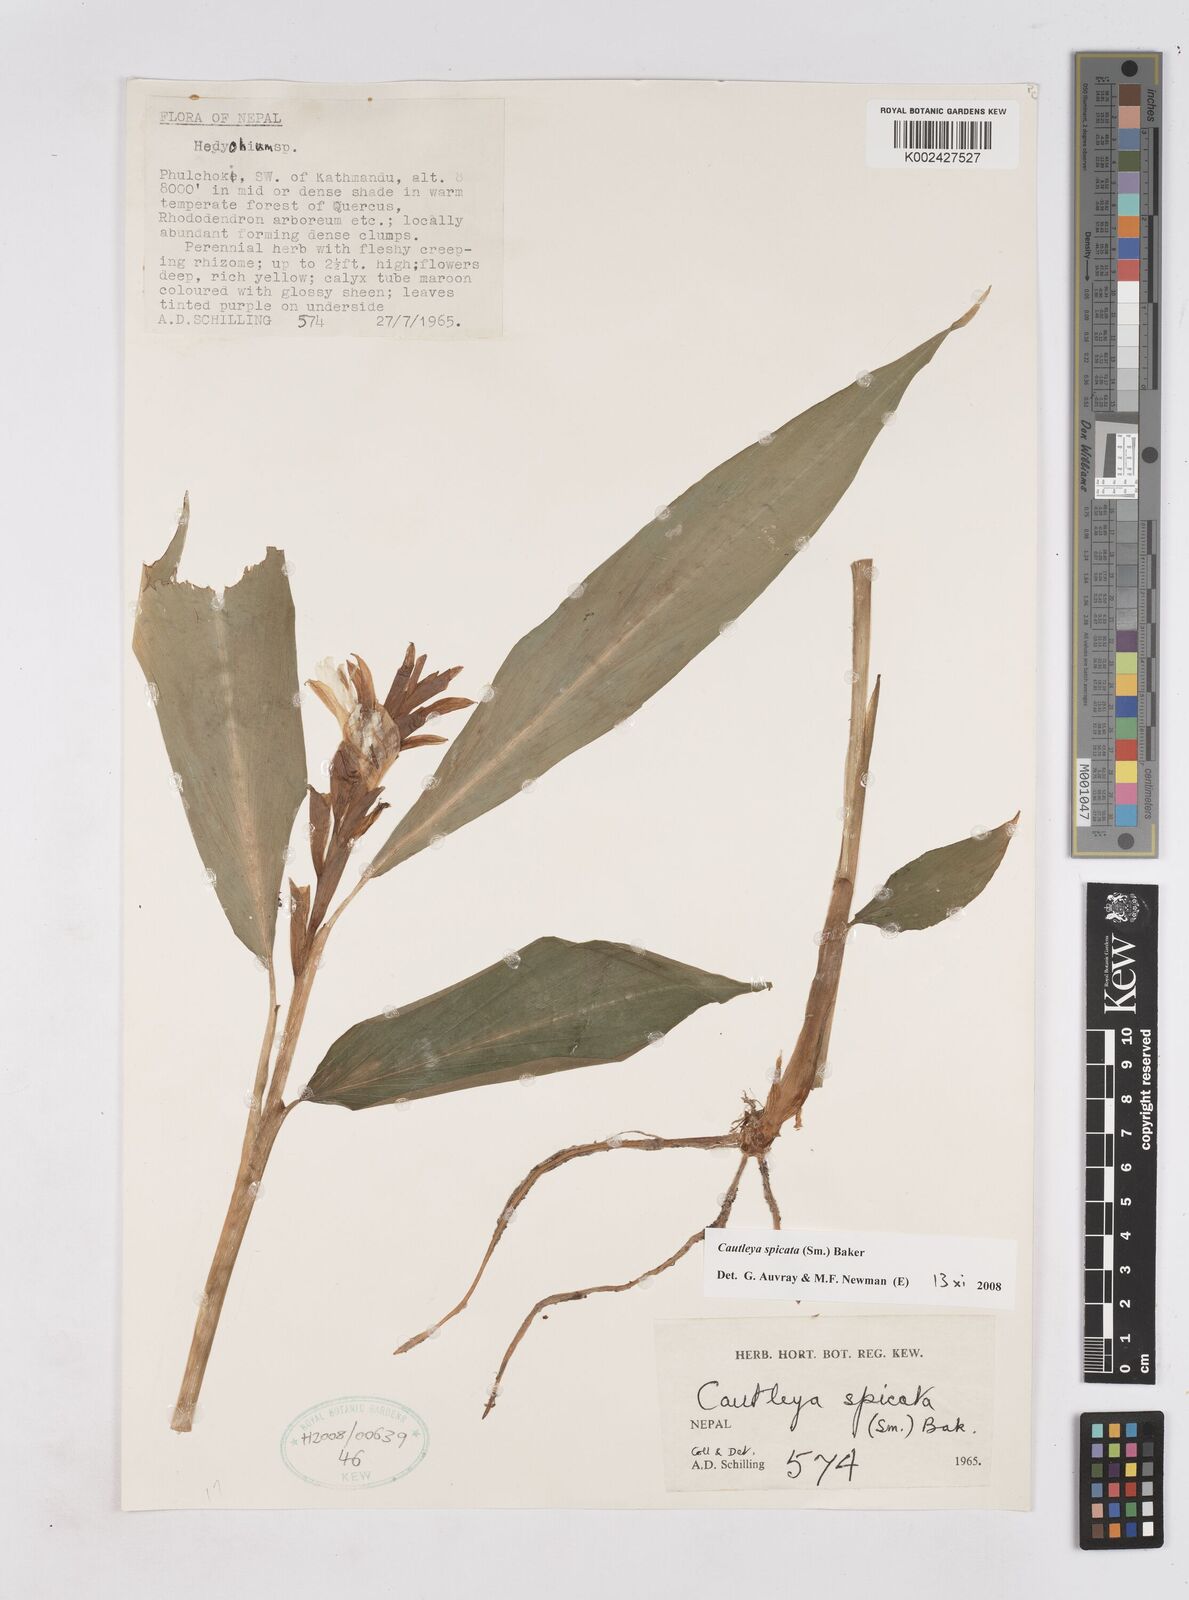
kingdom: Plantae
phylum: Tracheophyta
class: Liliopsida
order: Zingiberales
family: Zingiberaceae
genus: Cautleya
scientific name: Cautleya spicata
